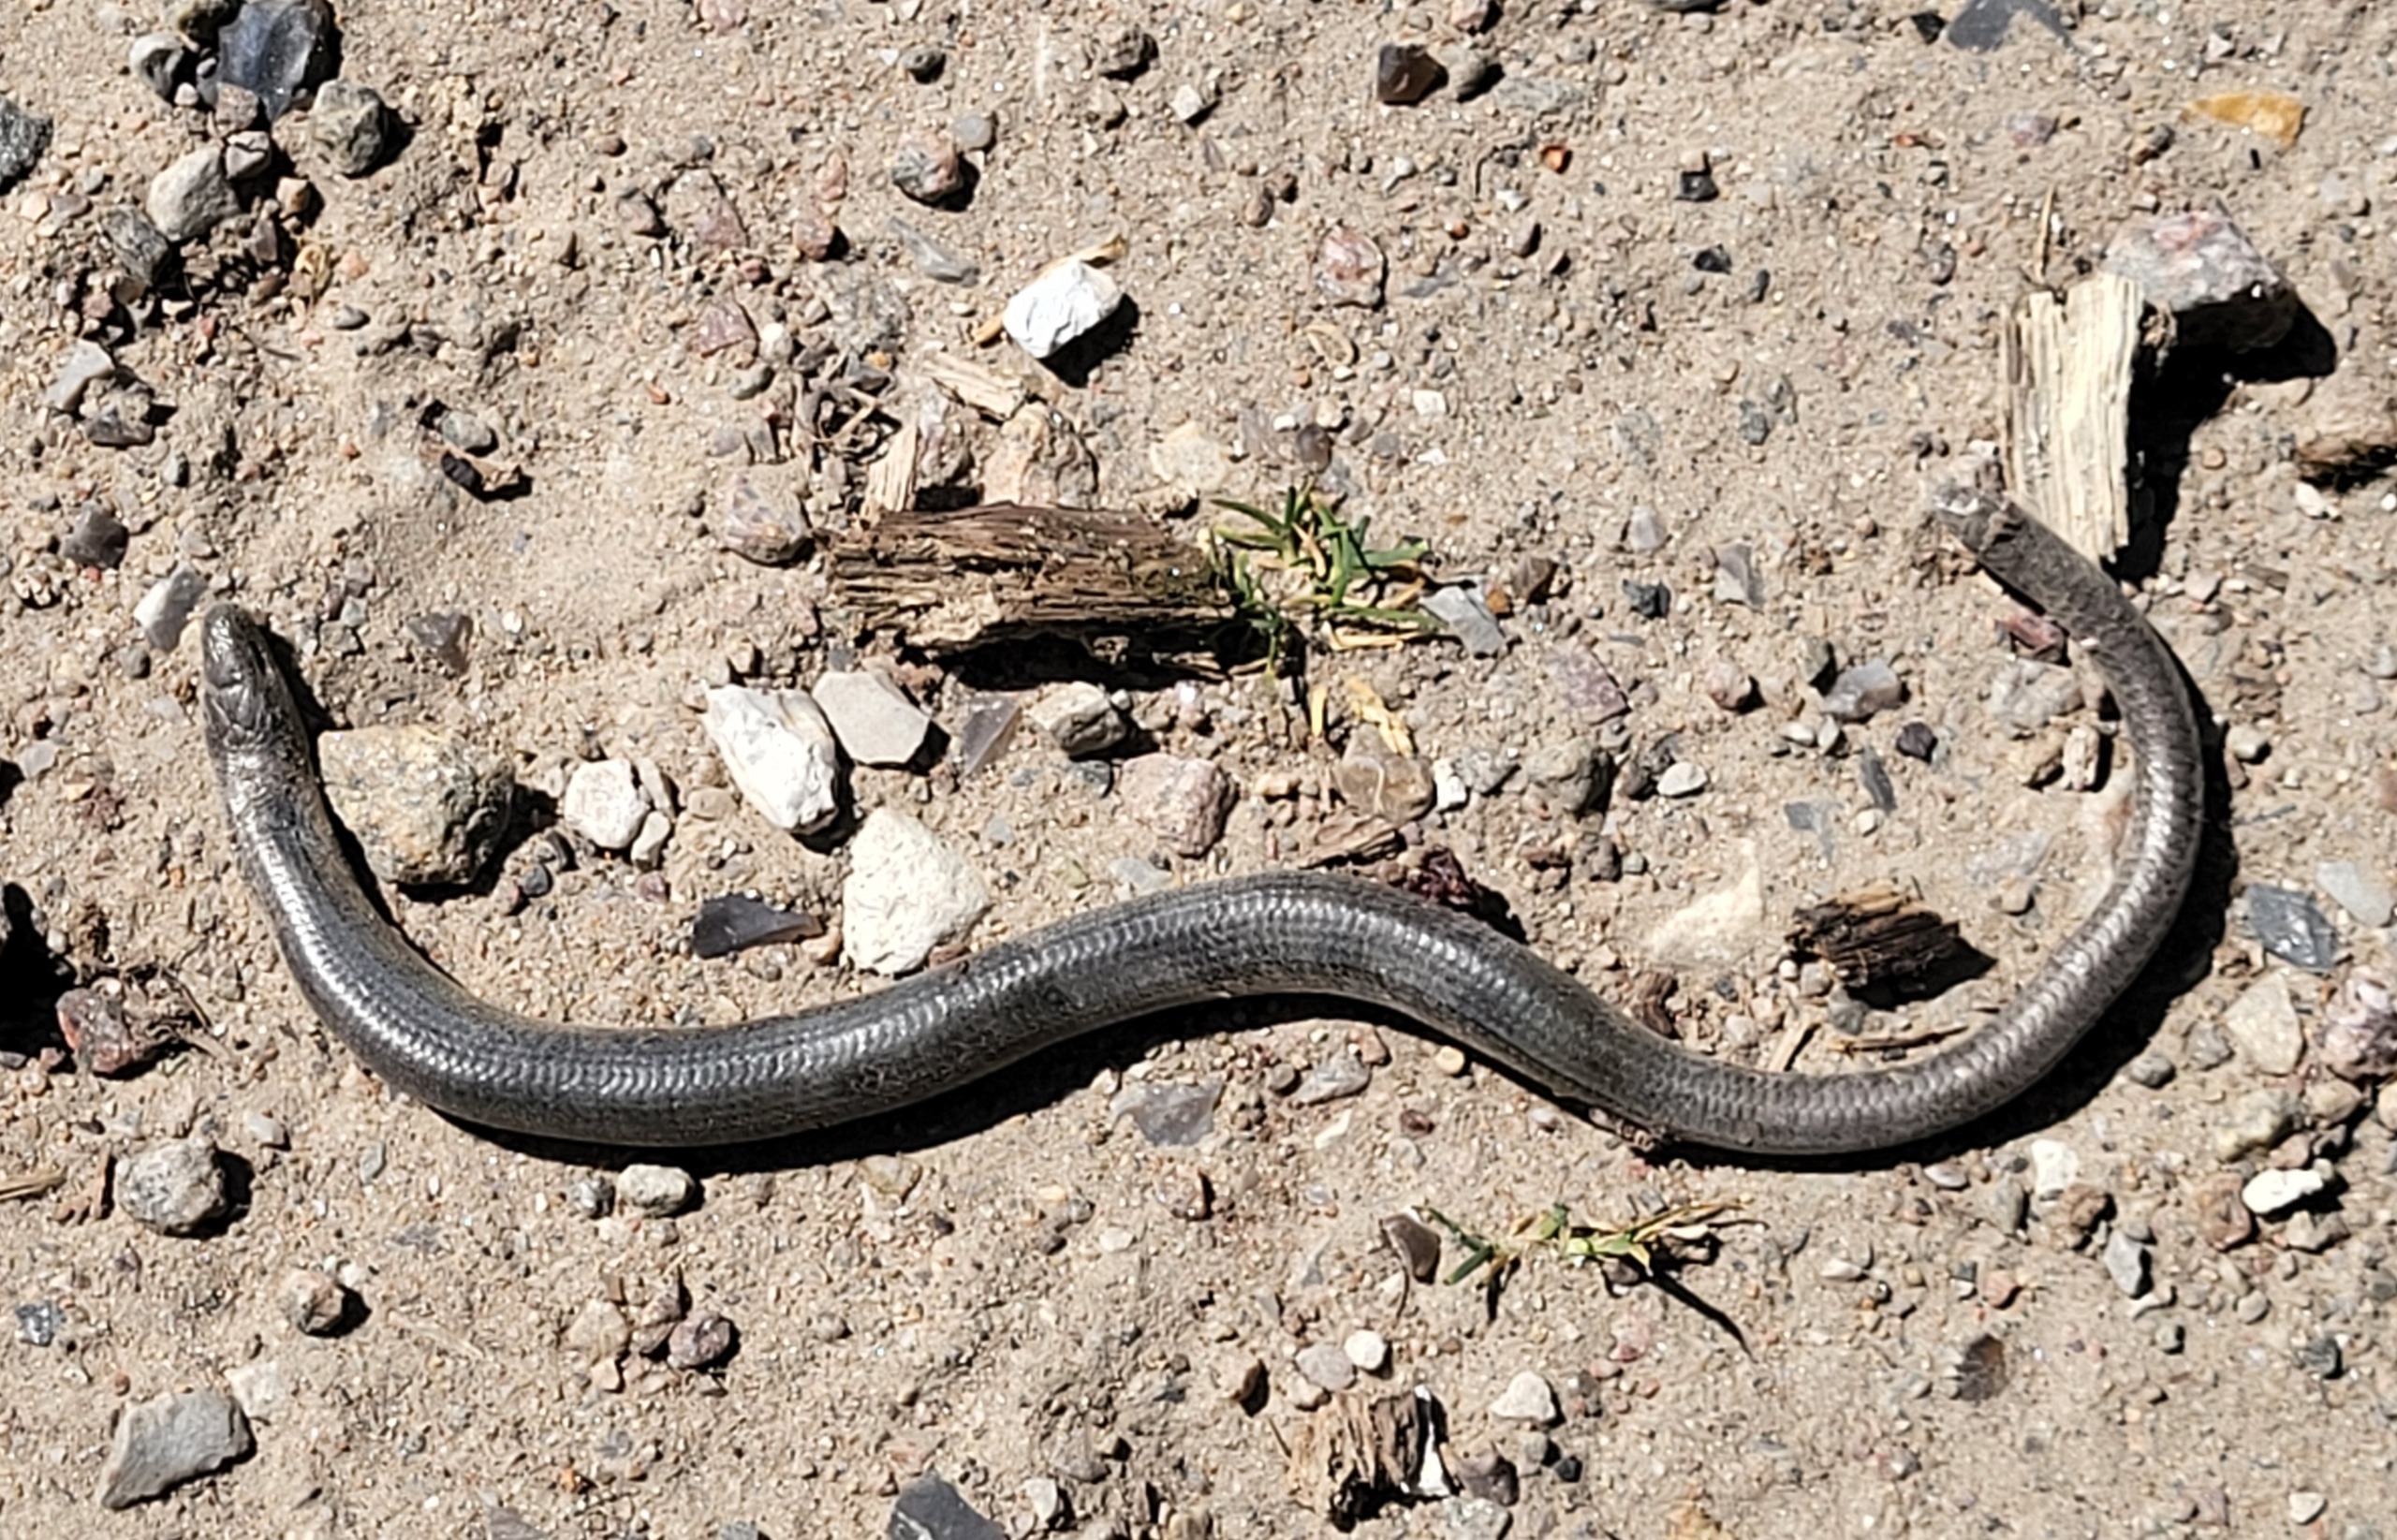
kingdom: Animalia
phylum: Chordata
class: Squamata
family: Anguidae
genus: Anguis
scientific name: Anguis fragilis
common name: Stålorm
